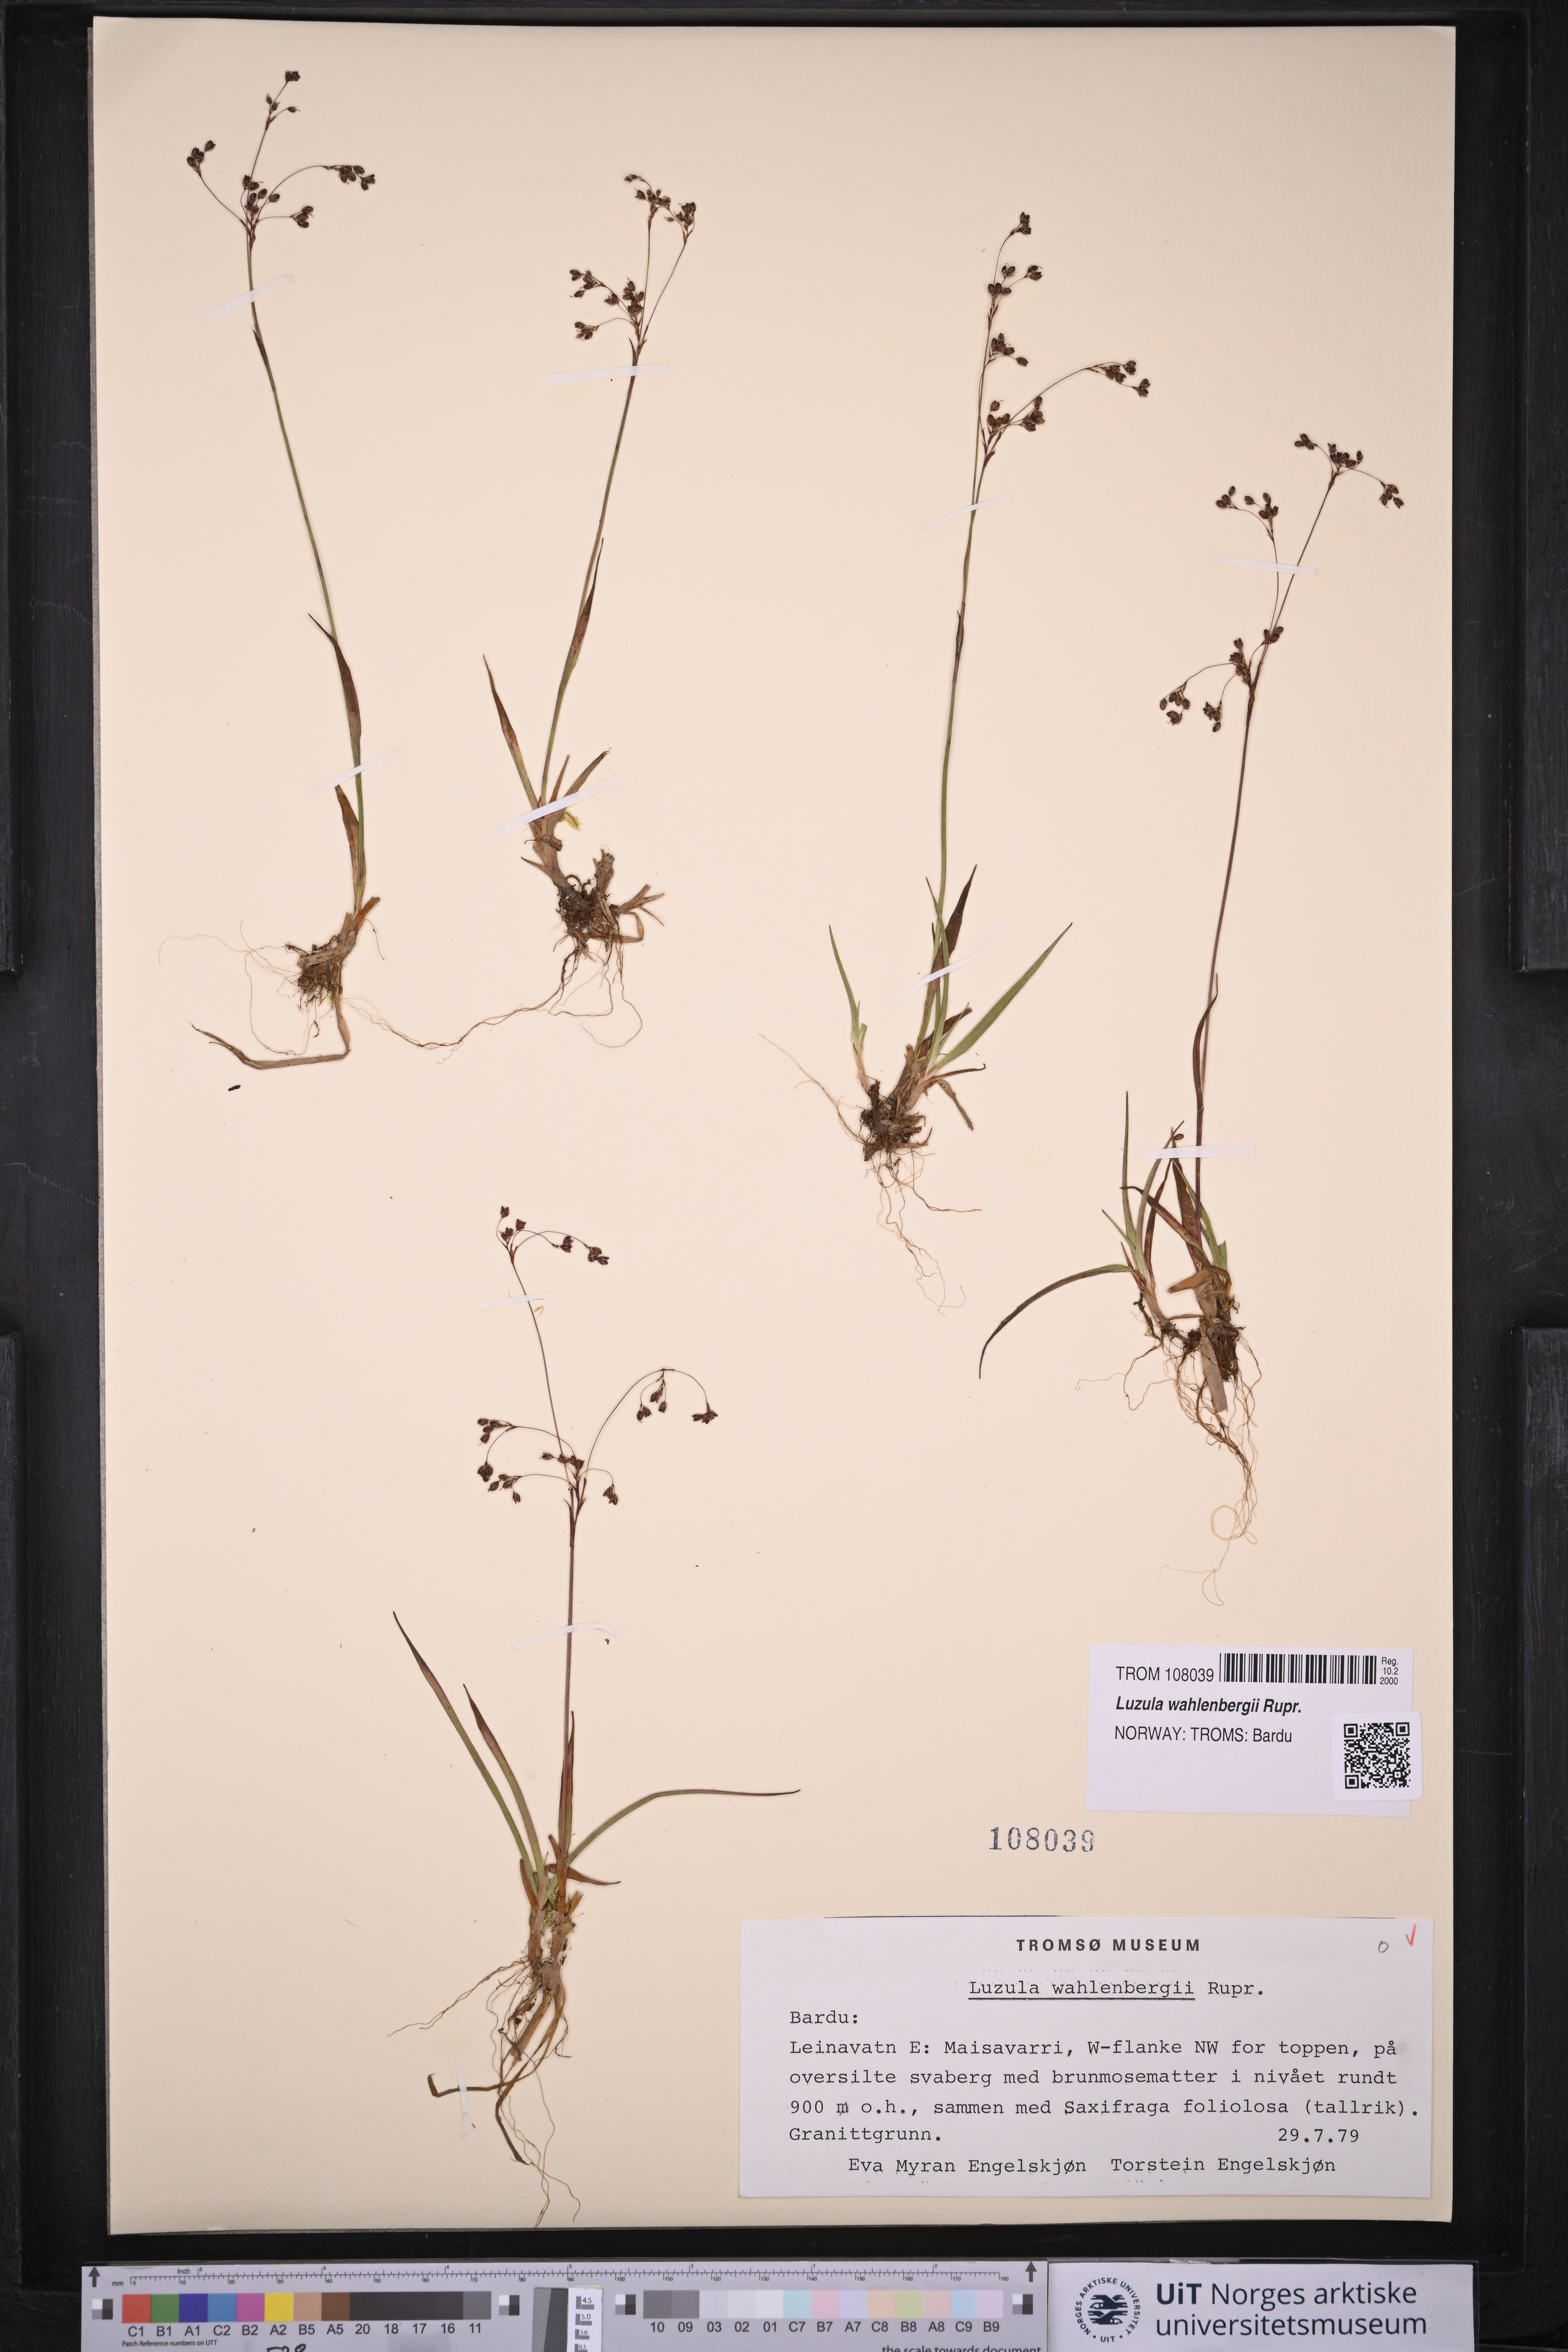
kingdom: Plantae
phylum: Tracheophyta
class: Liliopsida
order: Poales
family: Juncaceae
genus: Luzula
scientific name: Luzula wahlenbergii
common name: Wahlenberg's wood-rush
